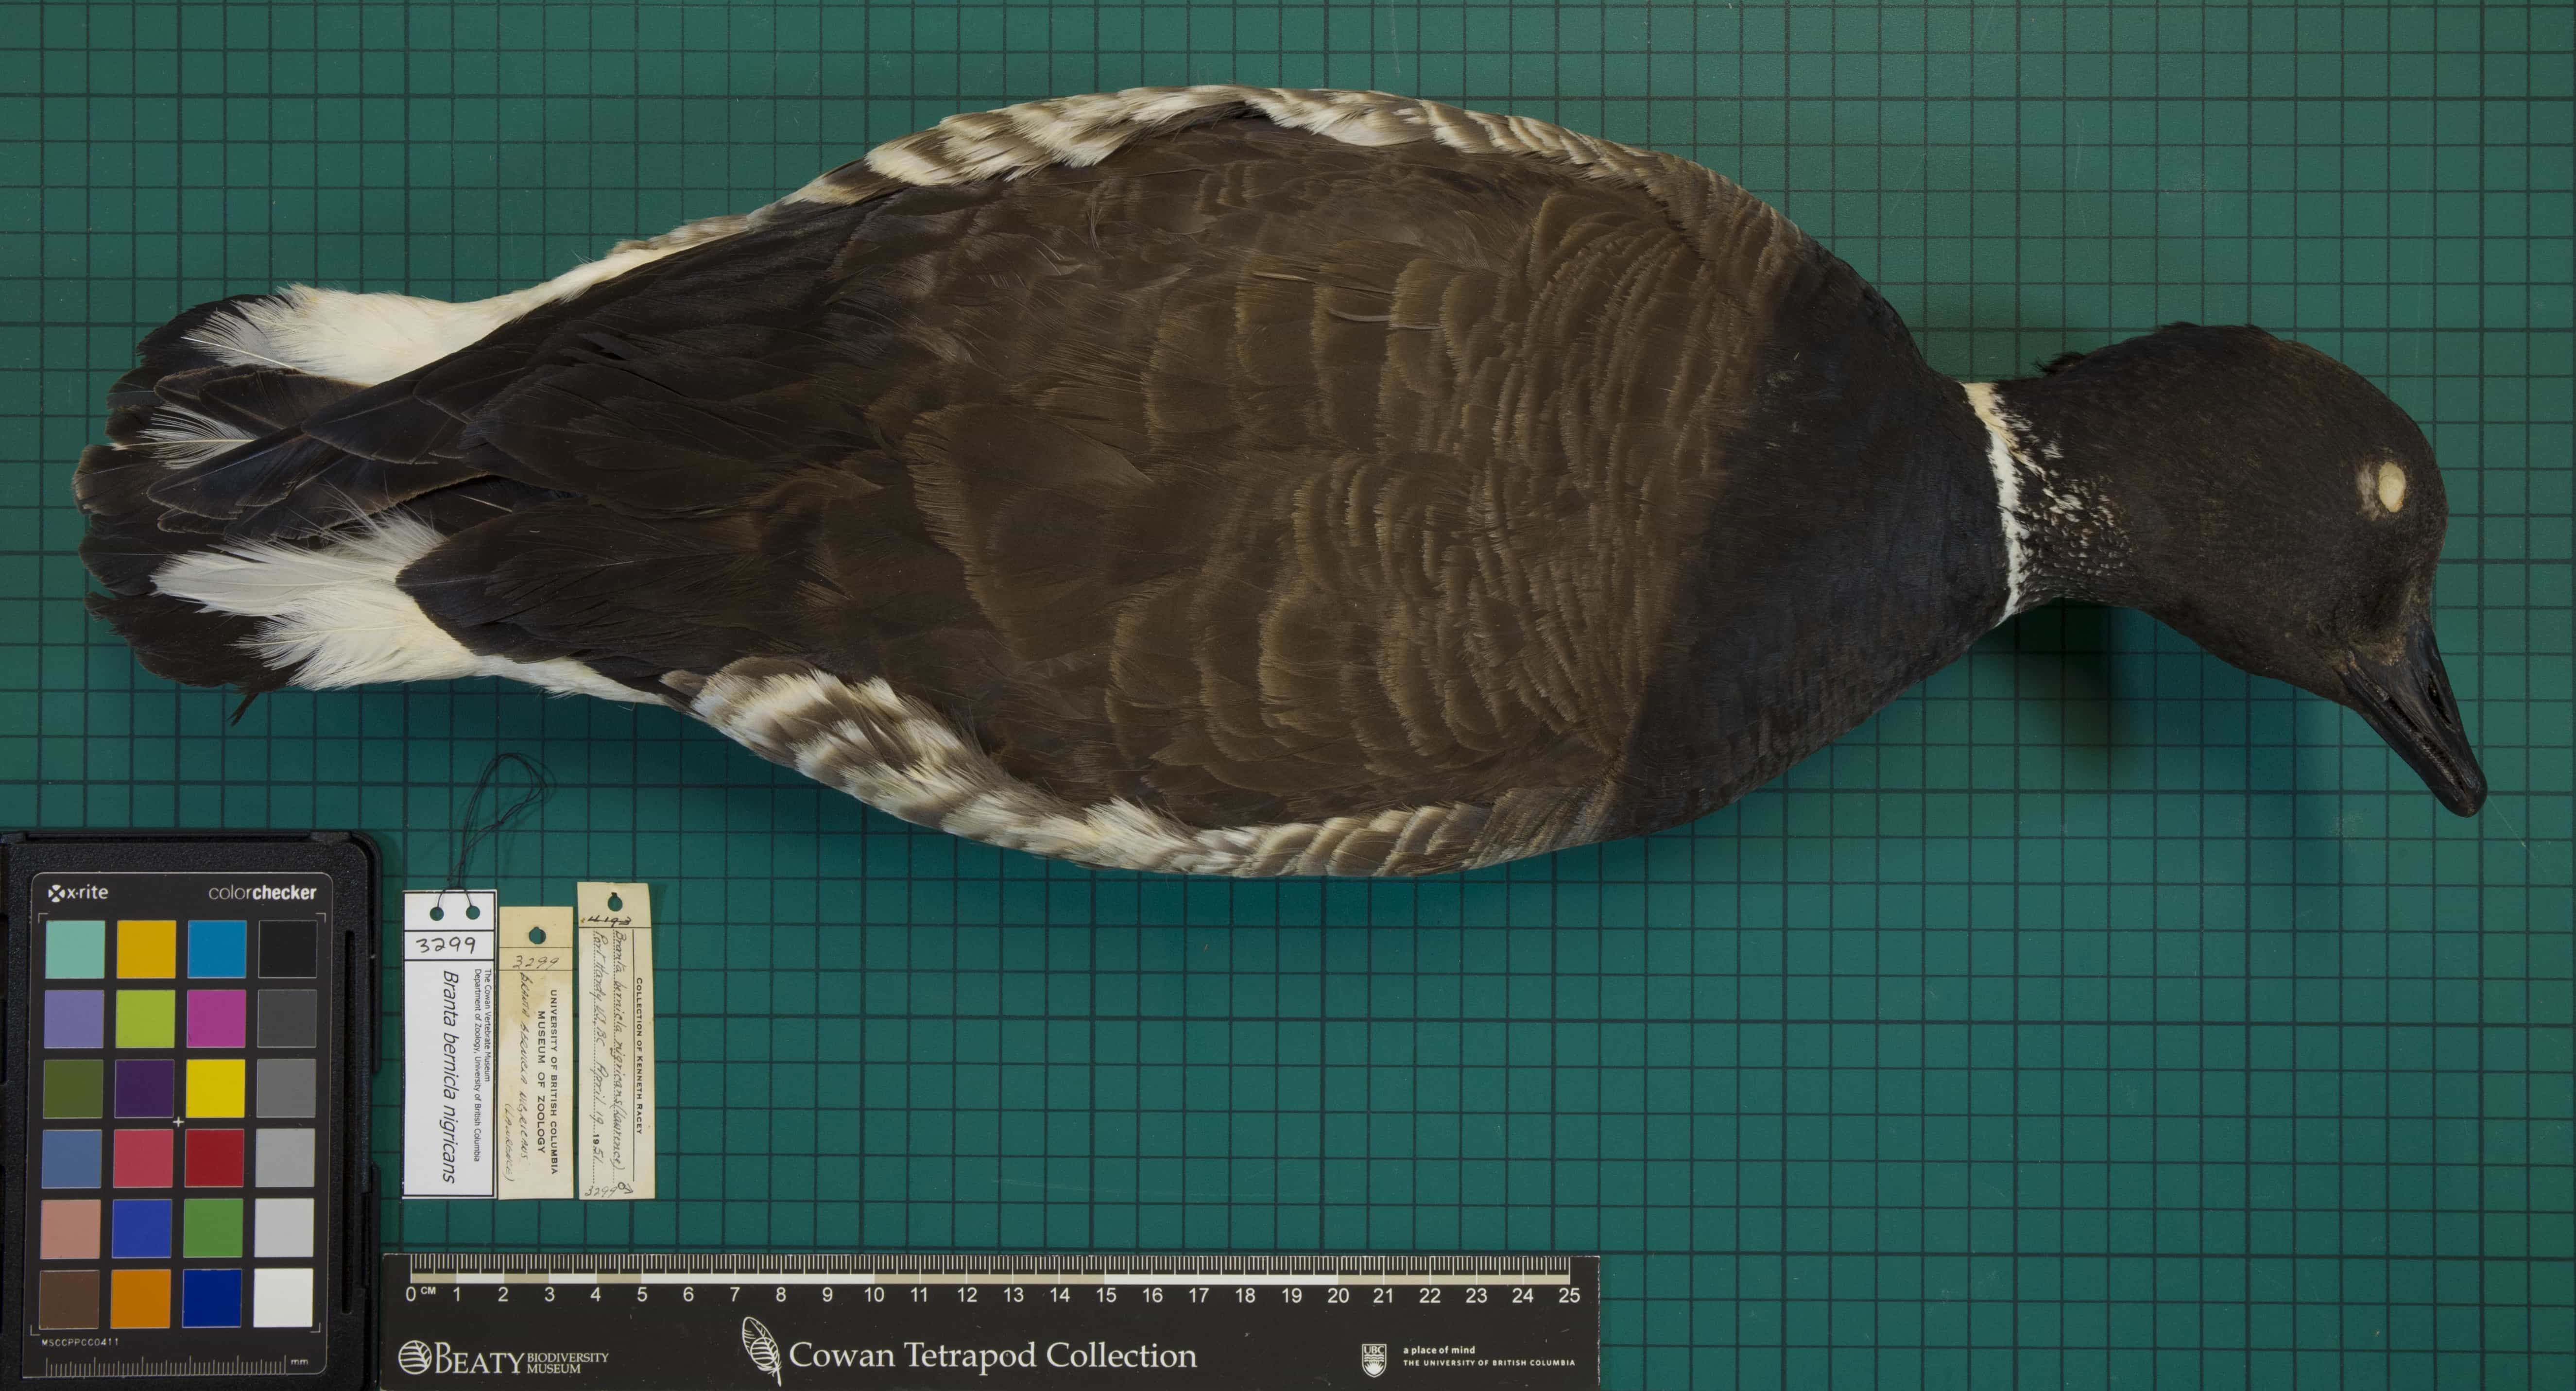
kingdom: Animalia
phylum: Chordata
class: Aves
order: Anseriformes
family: Anatidae
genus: Branta
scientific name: Branta bernicla
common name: Brant
